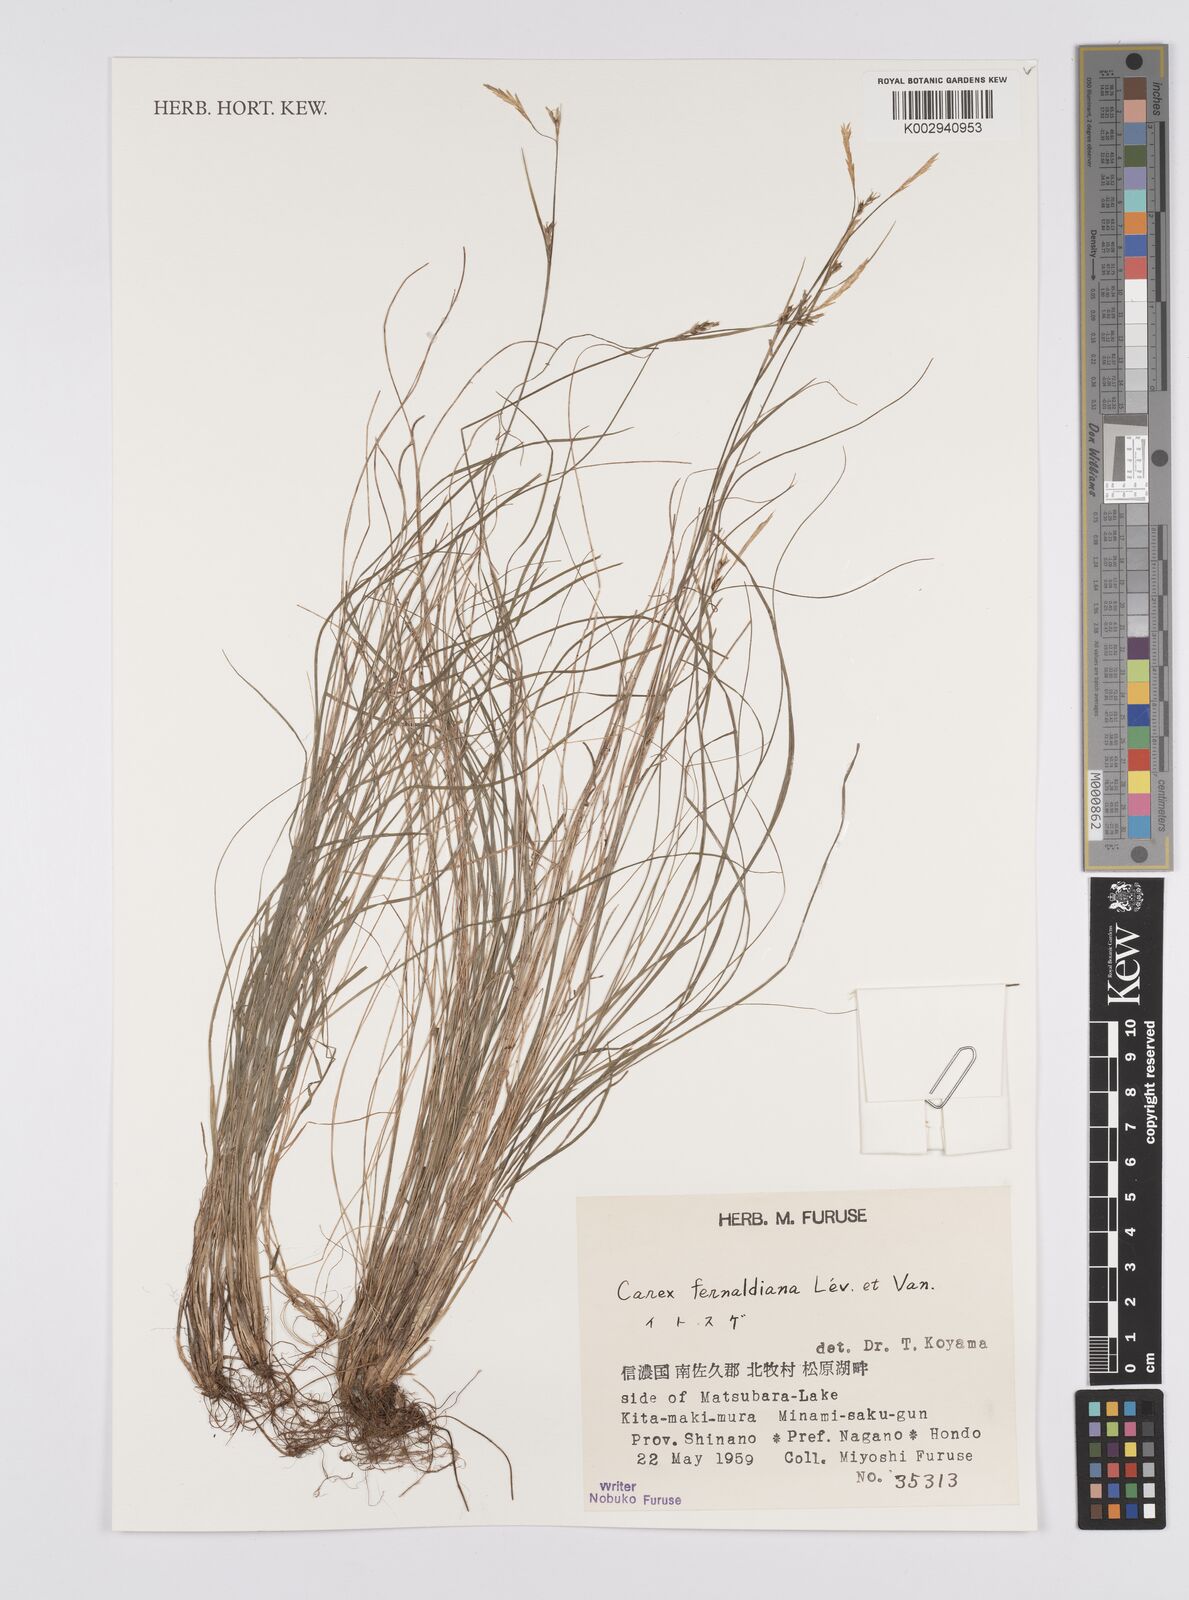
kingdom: Plantae
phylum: Tracheophyta
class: Liliopsida
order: Poales
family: Cyperaceae
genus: Carex
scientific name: Carex breviculmis
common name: Asian shortstem sedge
